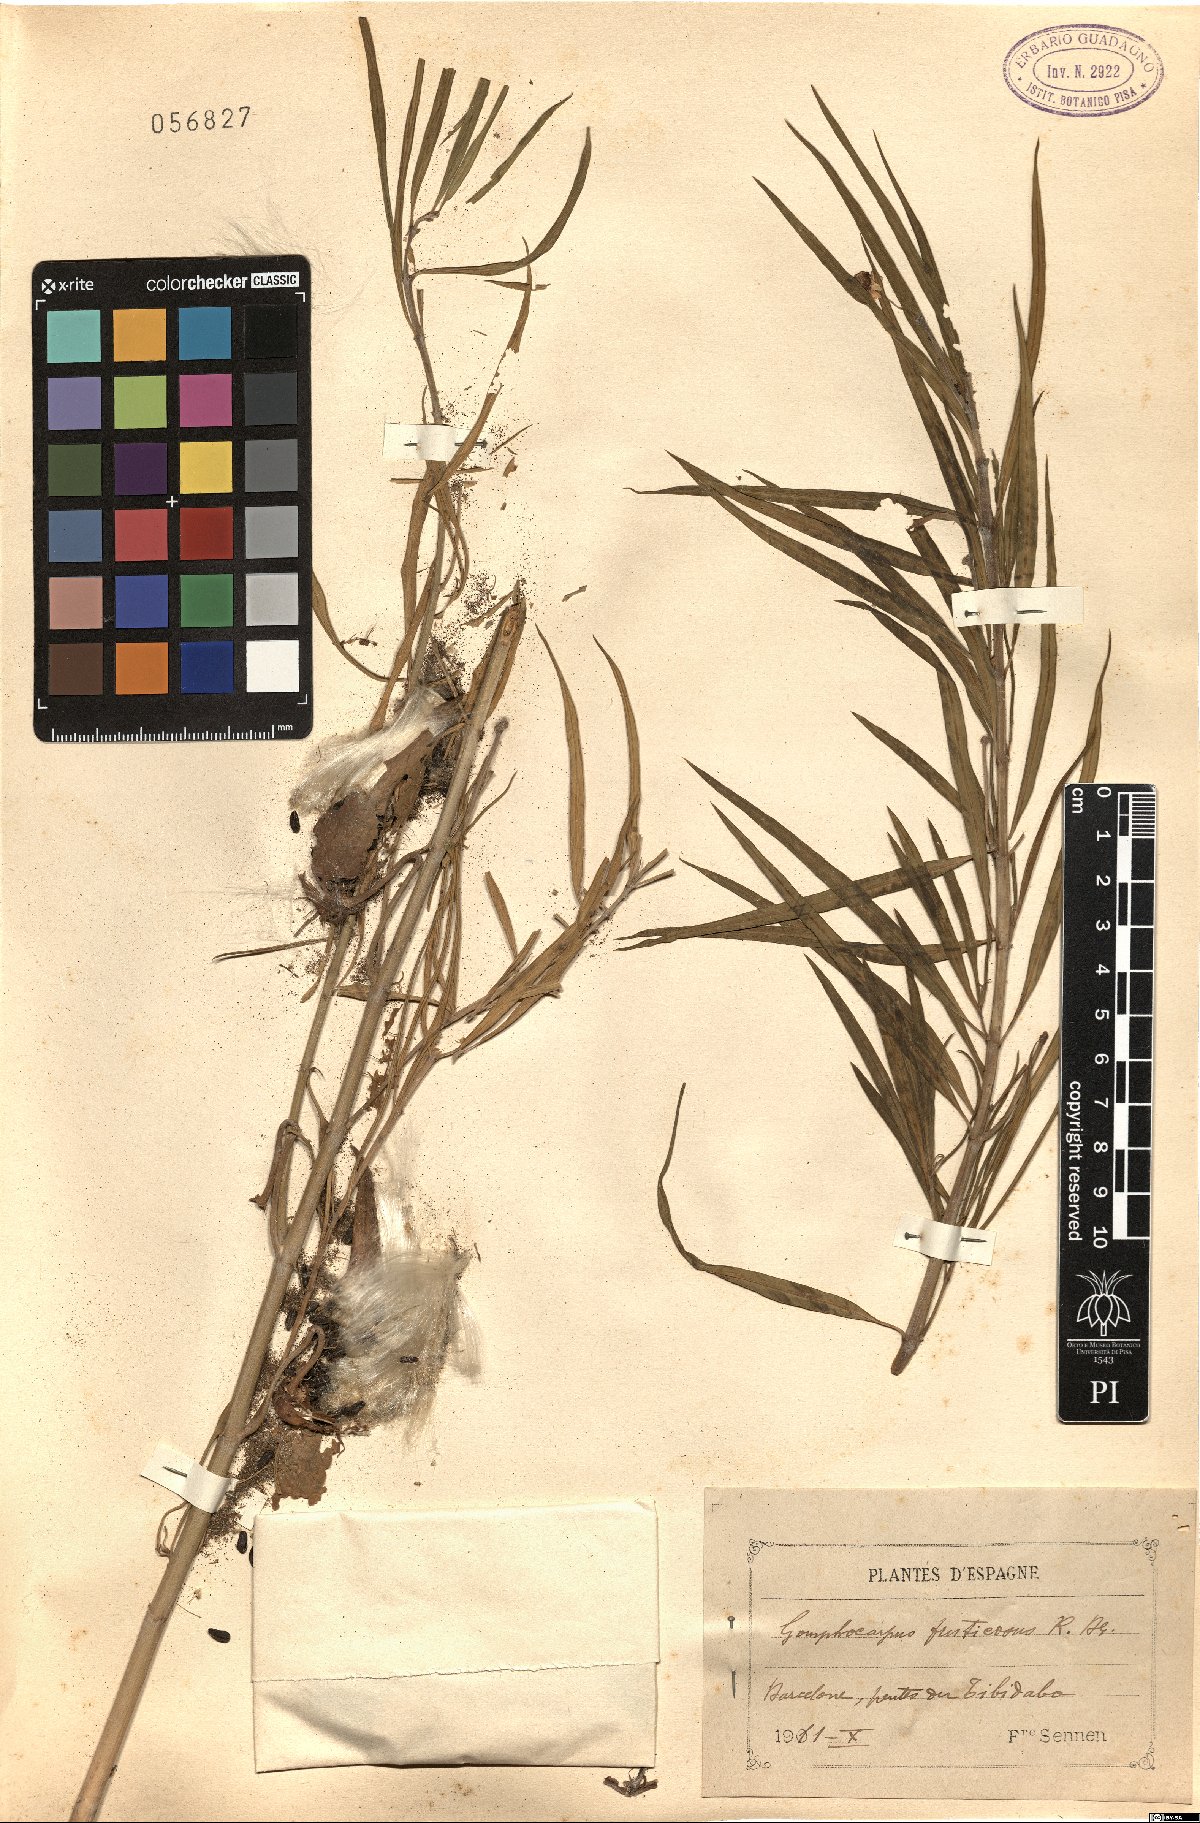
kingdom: Plantae
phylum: Tracheophyta
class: Magnoliopsida
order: Gentianales
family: Apocynaceae
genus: Gomphocarpus
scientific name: Gomphocarpus fruticosus
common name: Milkweed
